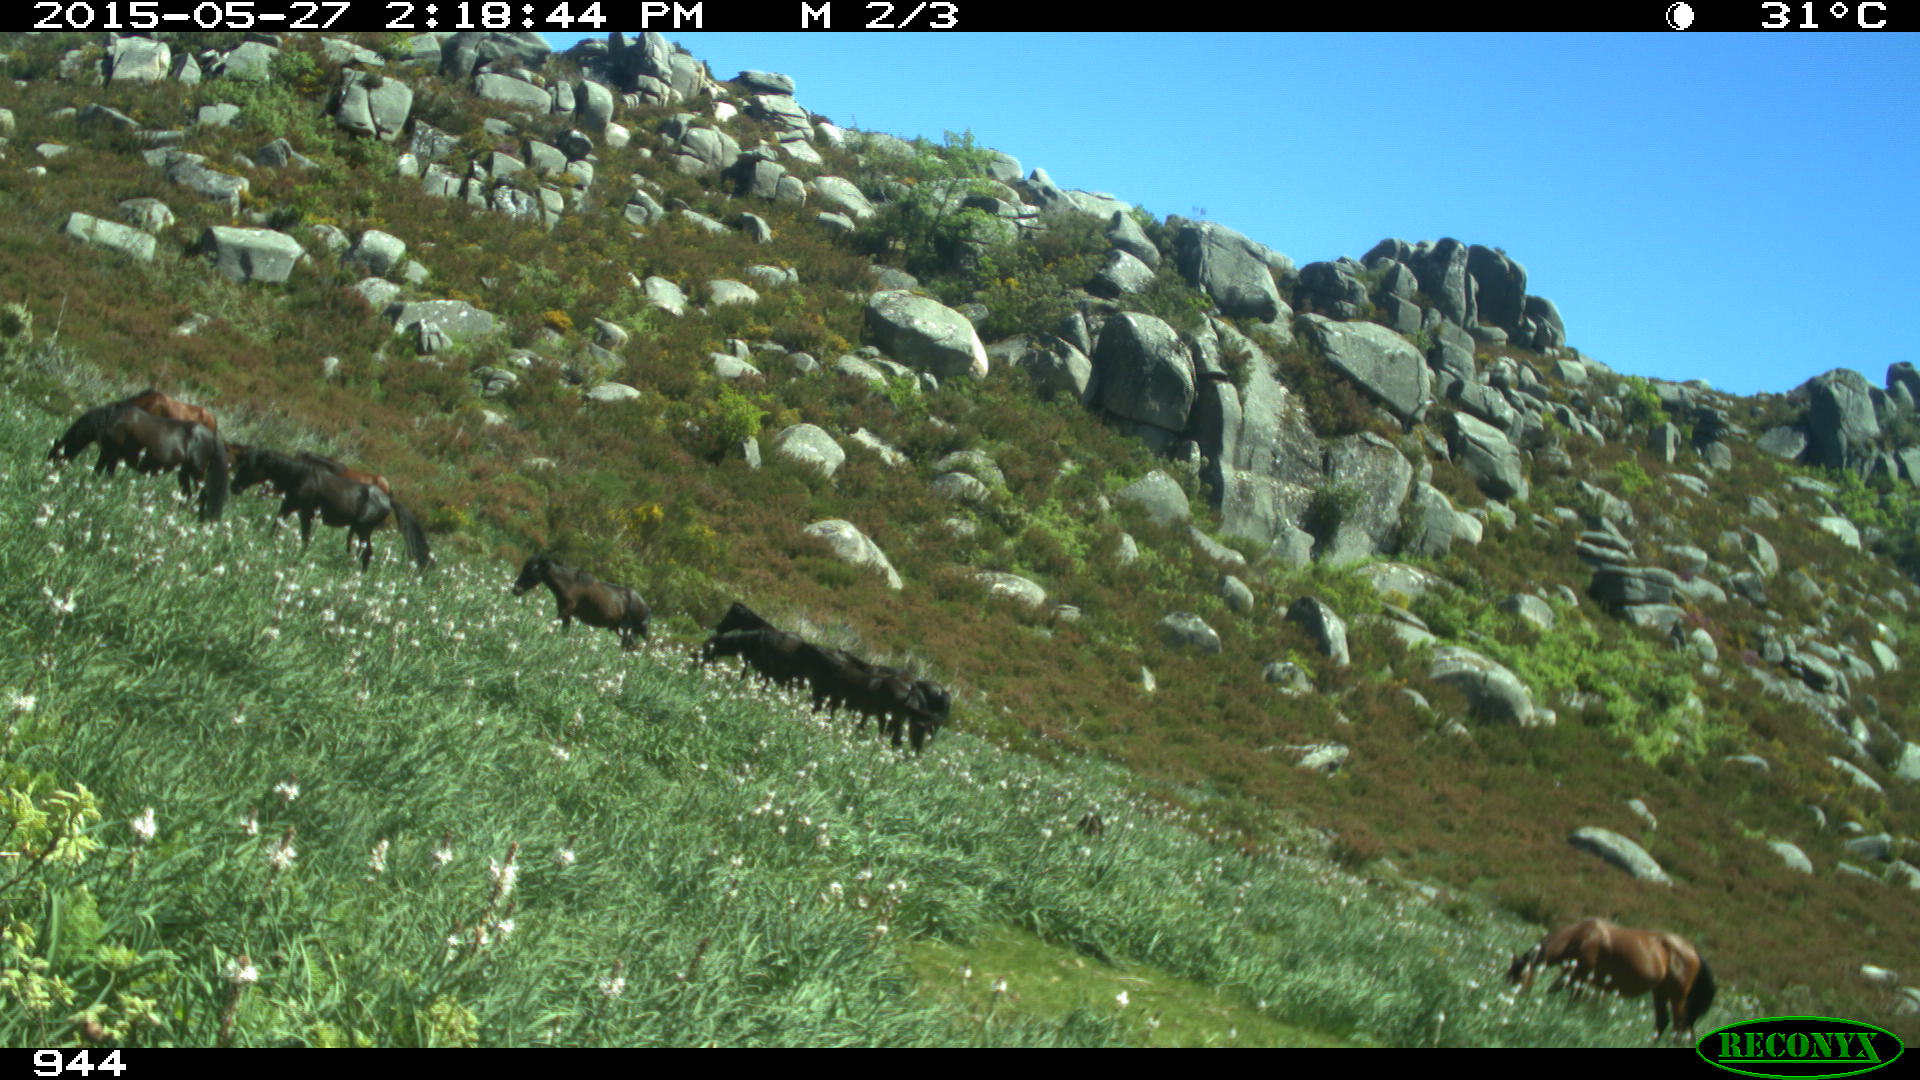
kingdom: Animalia
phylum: Chordata
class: Mammalia
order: Artiodactyla
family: Bovidae
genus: Bos
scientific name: Bos taurus
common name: Domesticated cattle
